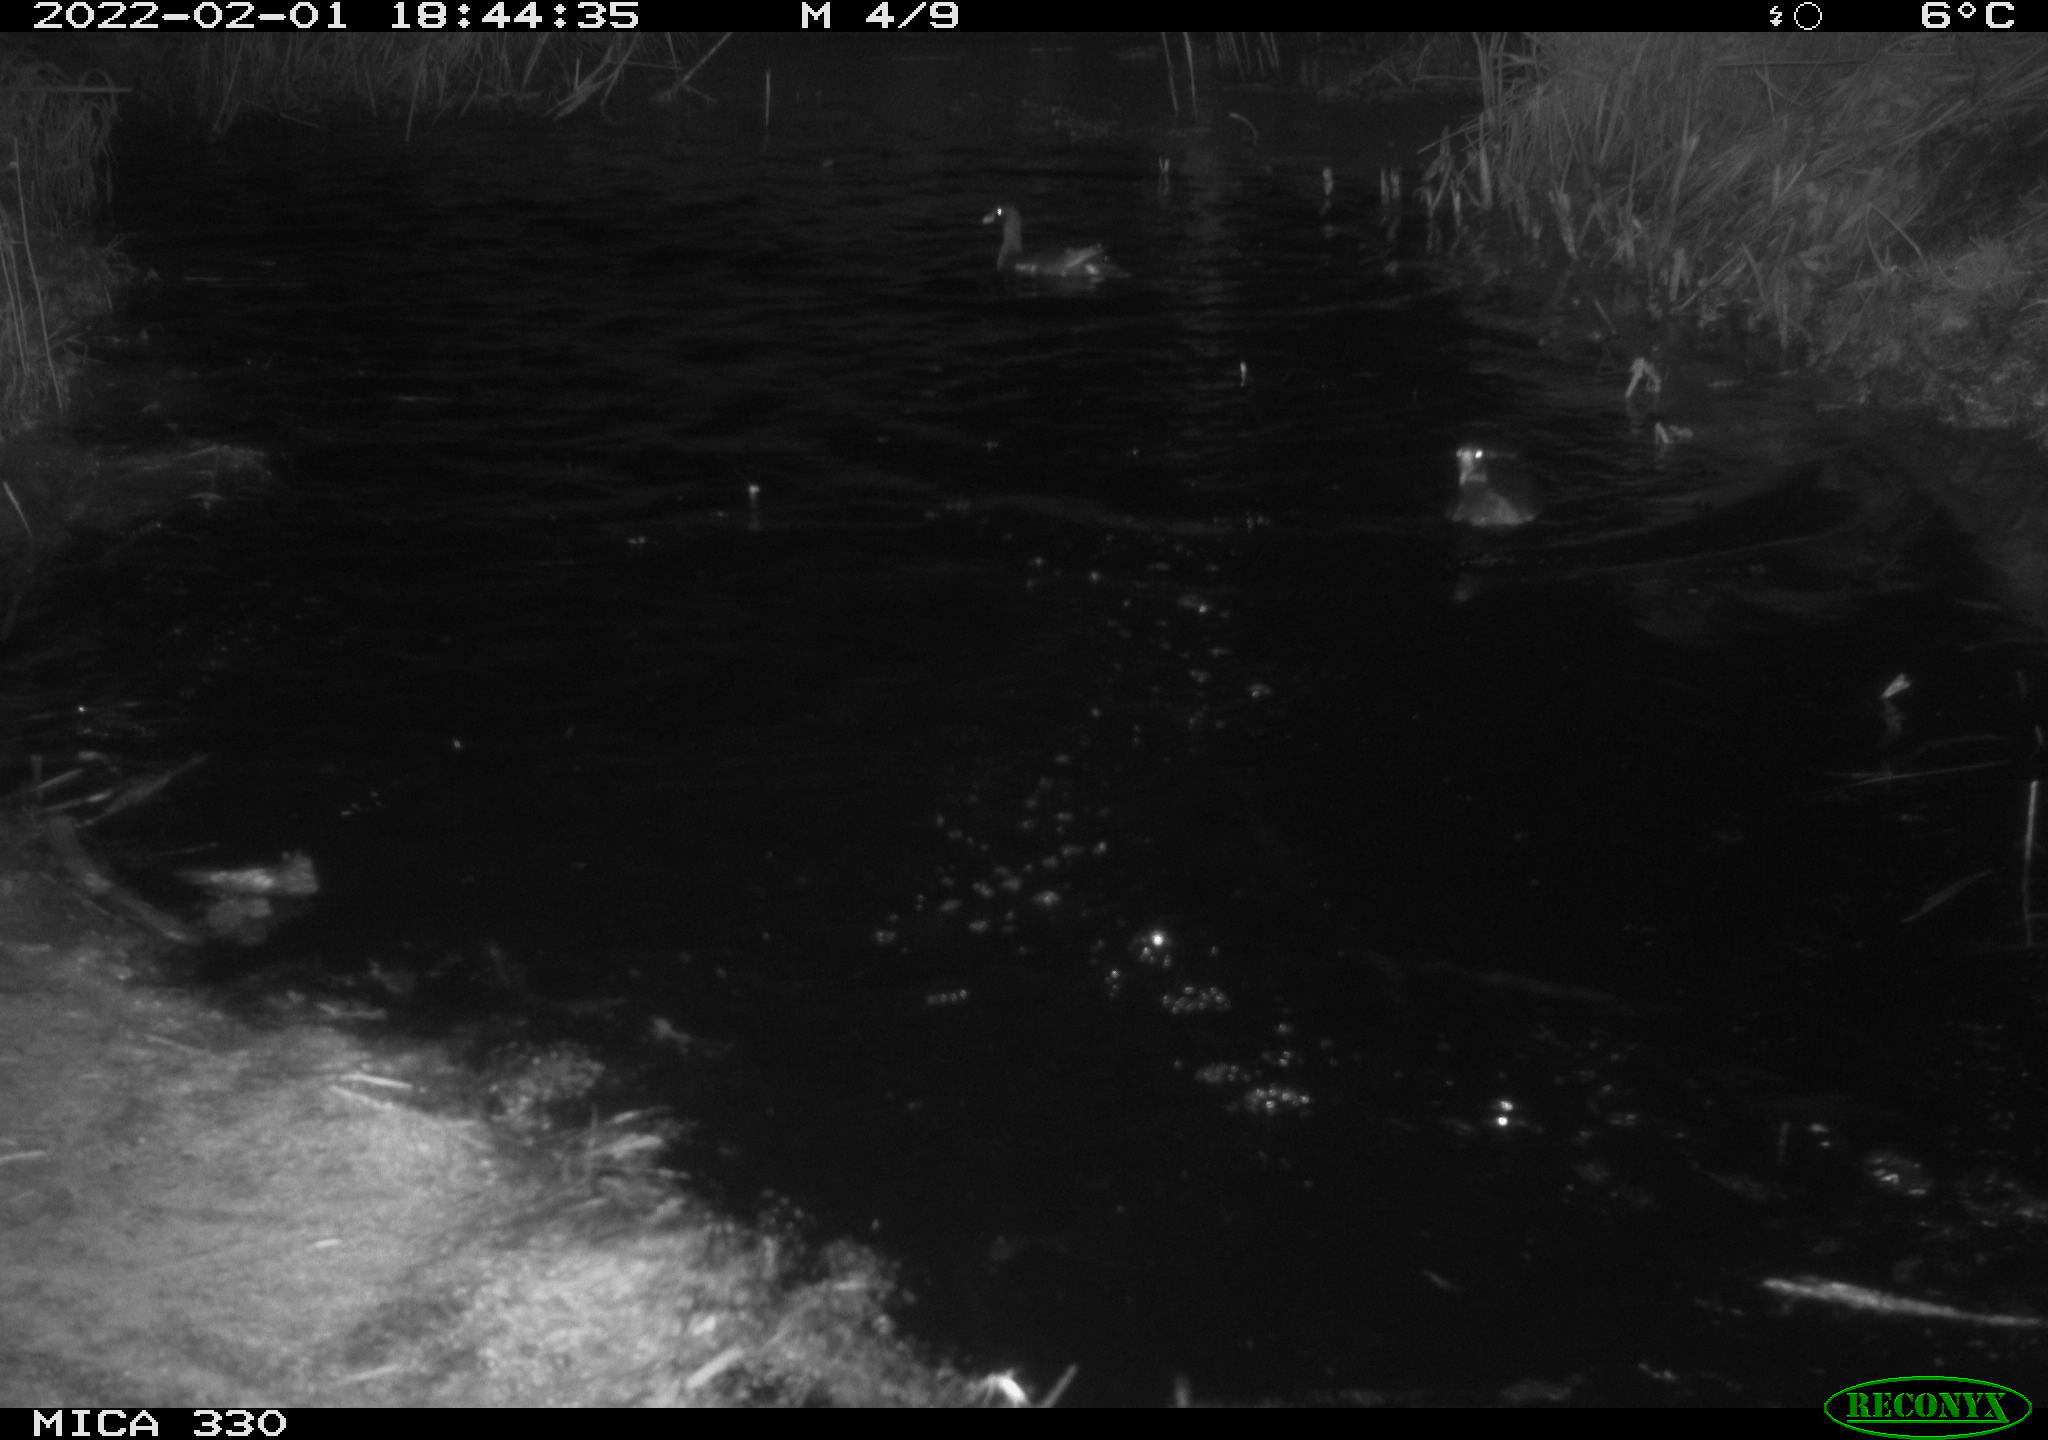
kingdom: Animalia
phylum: Chordata
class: Aves
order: Gruiformes
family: Rallidae
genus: Gallinula
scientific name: Gallinula chloropus
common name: Common moorhen
